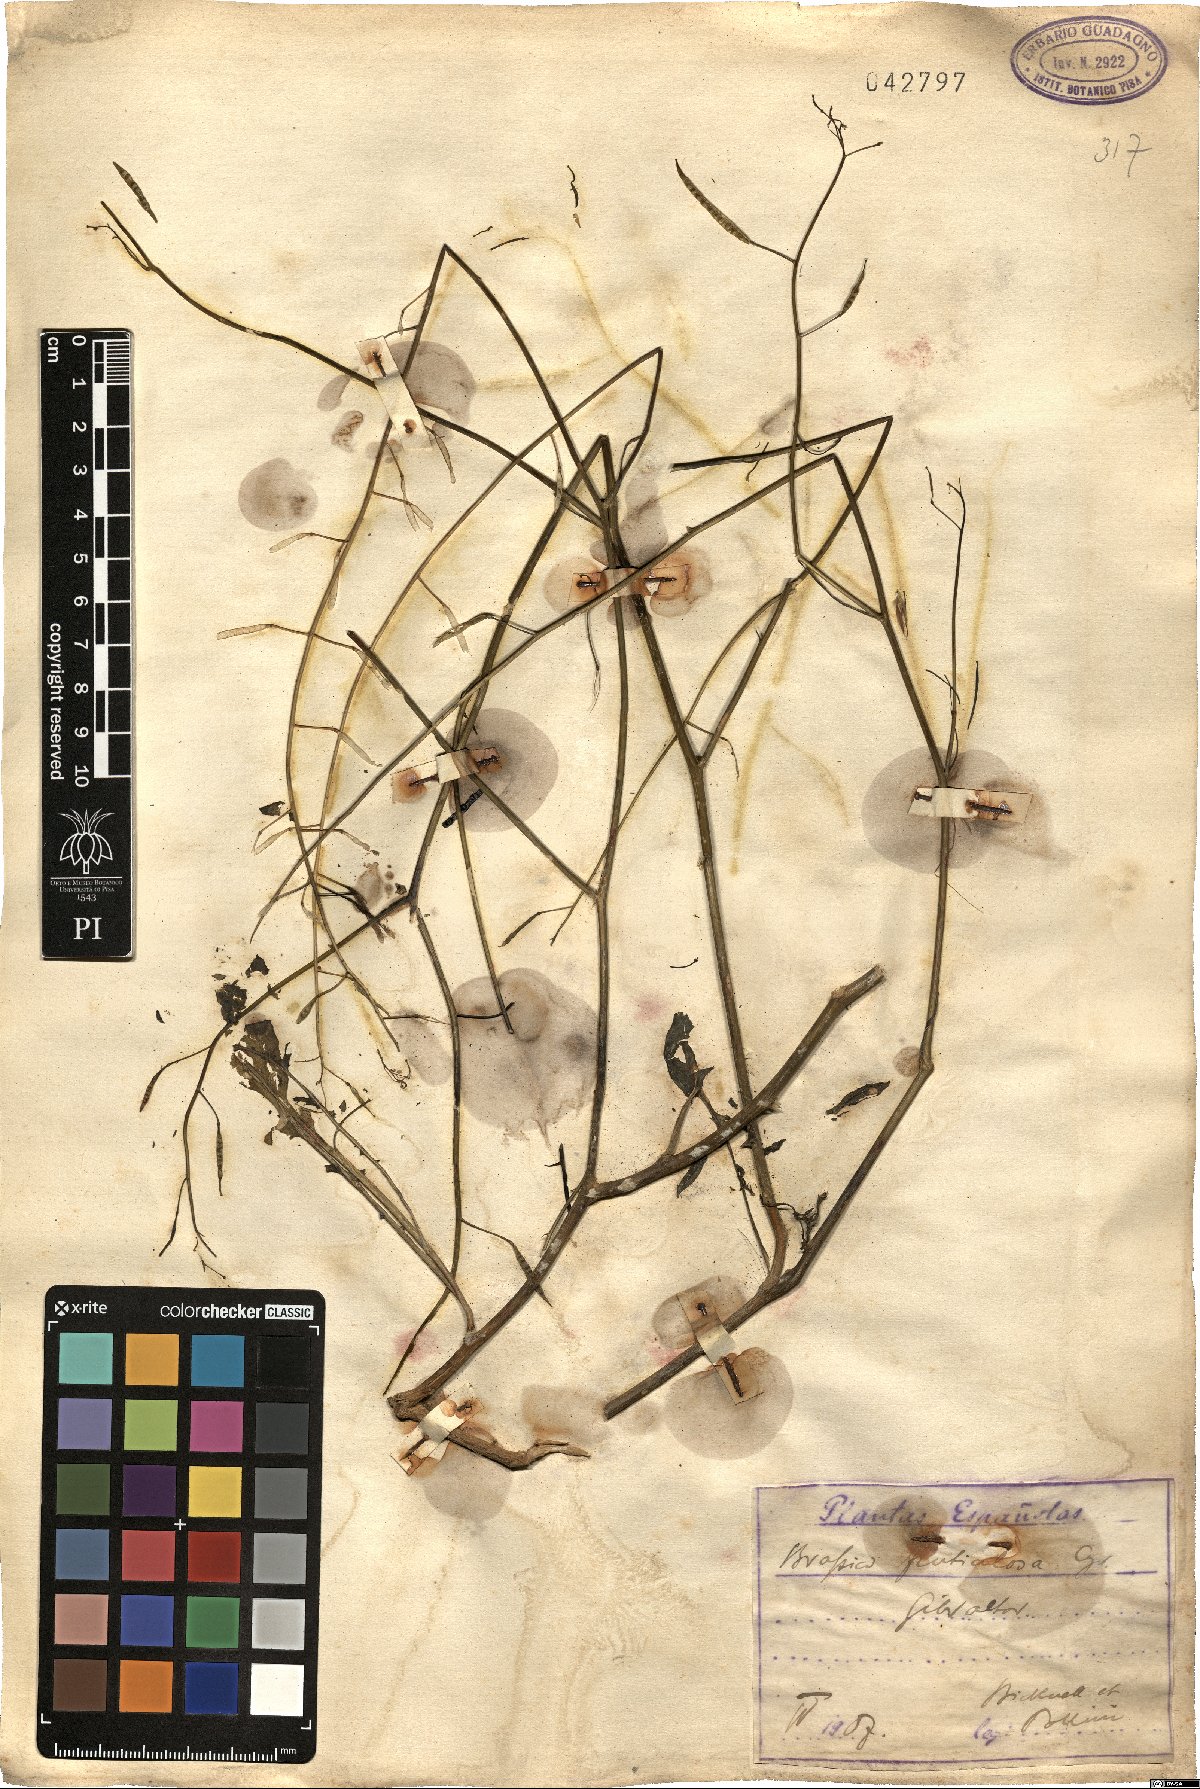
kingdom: Plantae
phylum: Tracheophyta
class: Magnoliopsida
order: Brassicales
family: Brassicaceae
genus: Brassica
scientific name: Brassica fruticulosa
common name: Twiggy turnip
